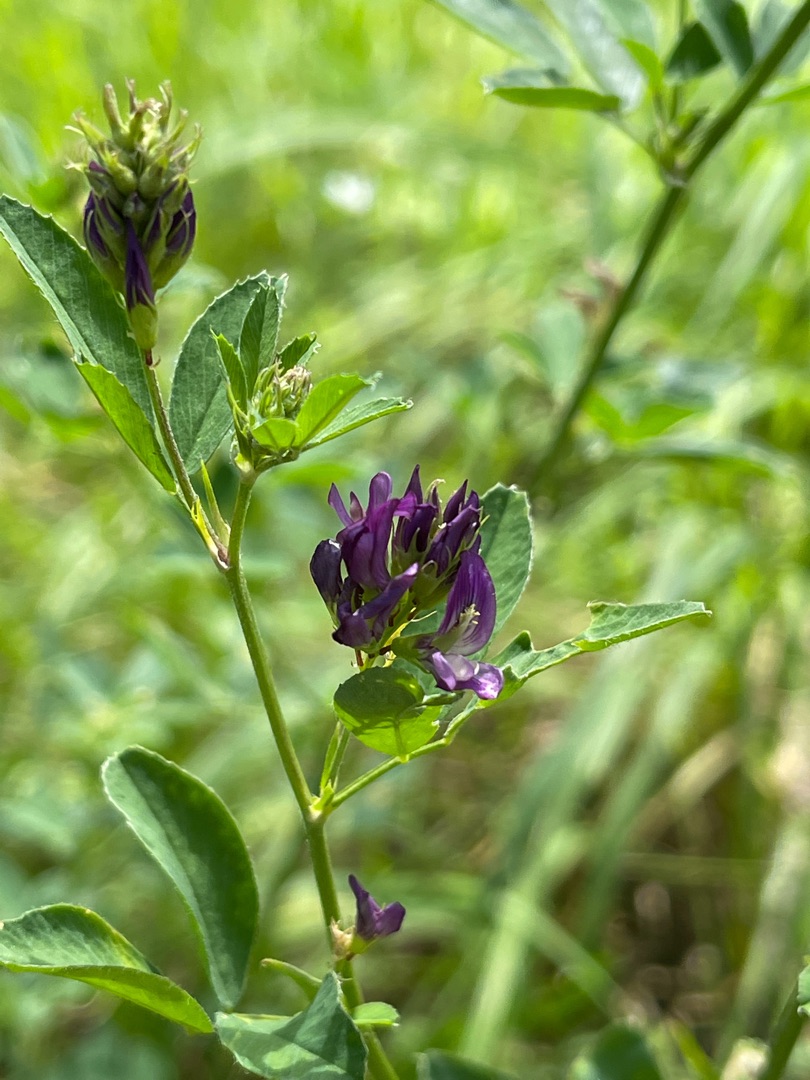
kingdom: Plantae
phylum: Tracheophyta
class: Magnoliopsida
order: Fabales
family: Fabaceae
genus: Medicago
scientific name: Medicago sativa
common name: Lucerne
